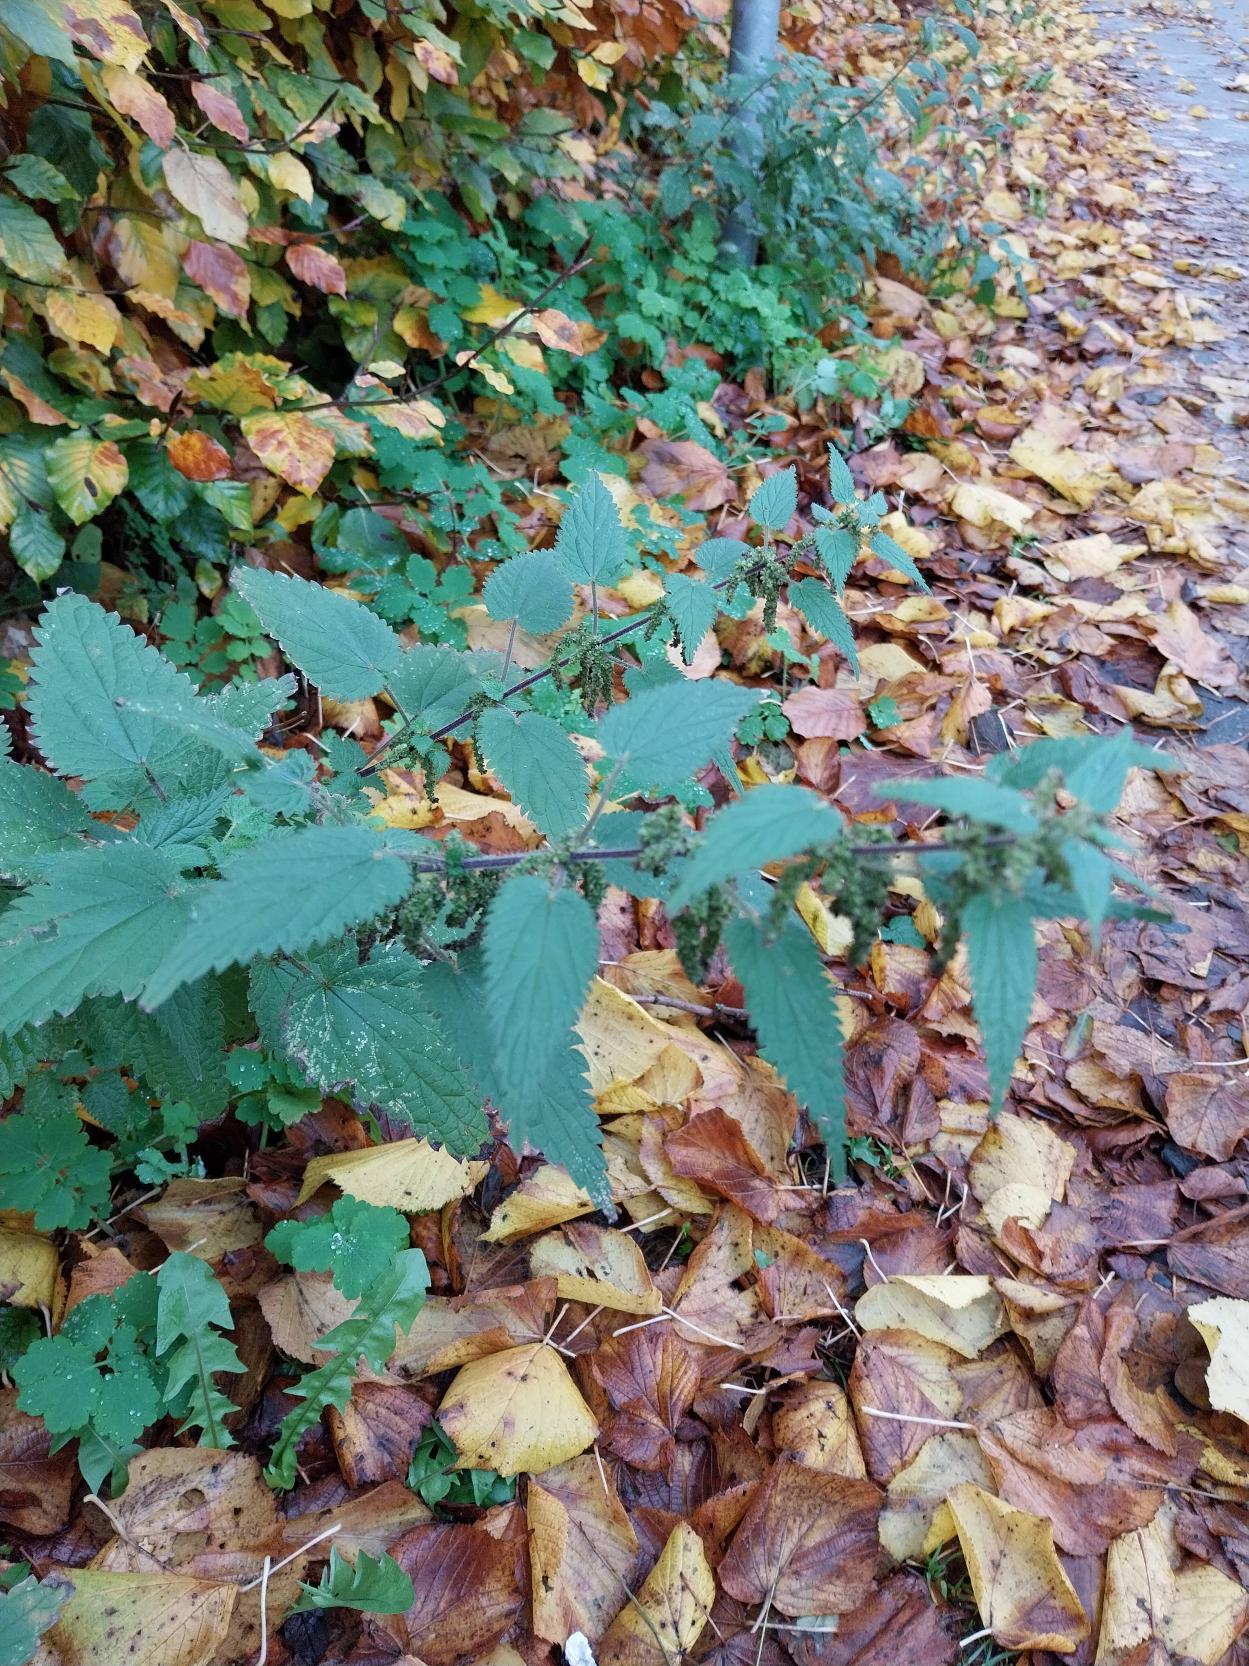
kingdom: Plantae
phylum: Tracheophyta
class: Magnoliopsida
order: Rosales
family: Urticaceae
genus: Urtica
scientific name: Urtica dioica
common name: Stor nælde
